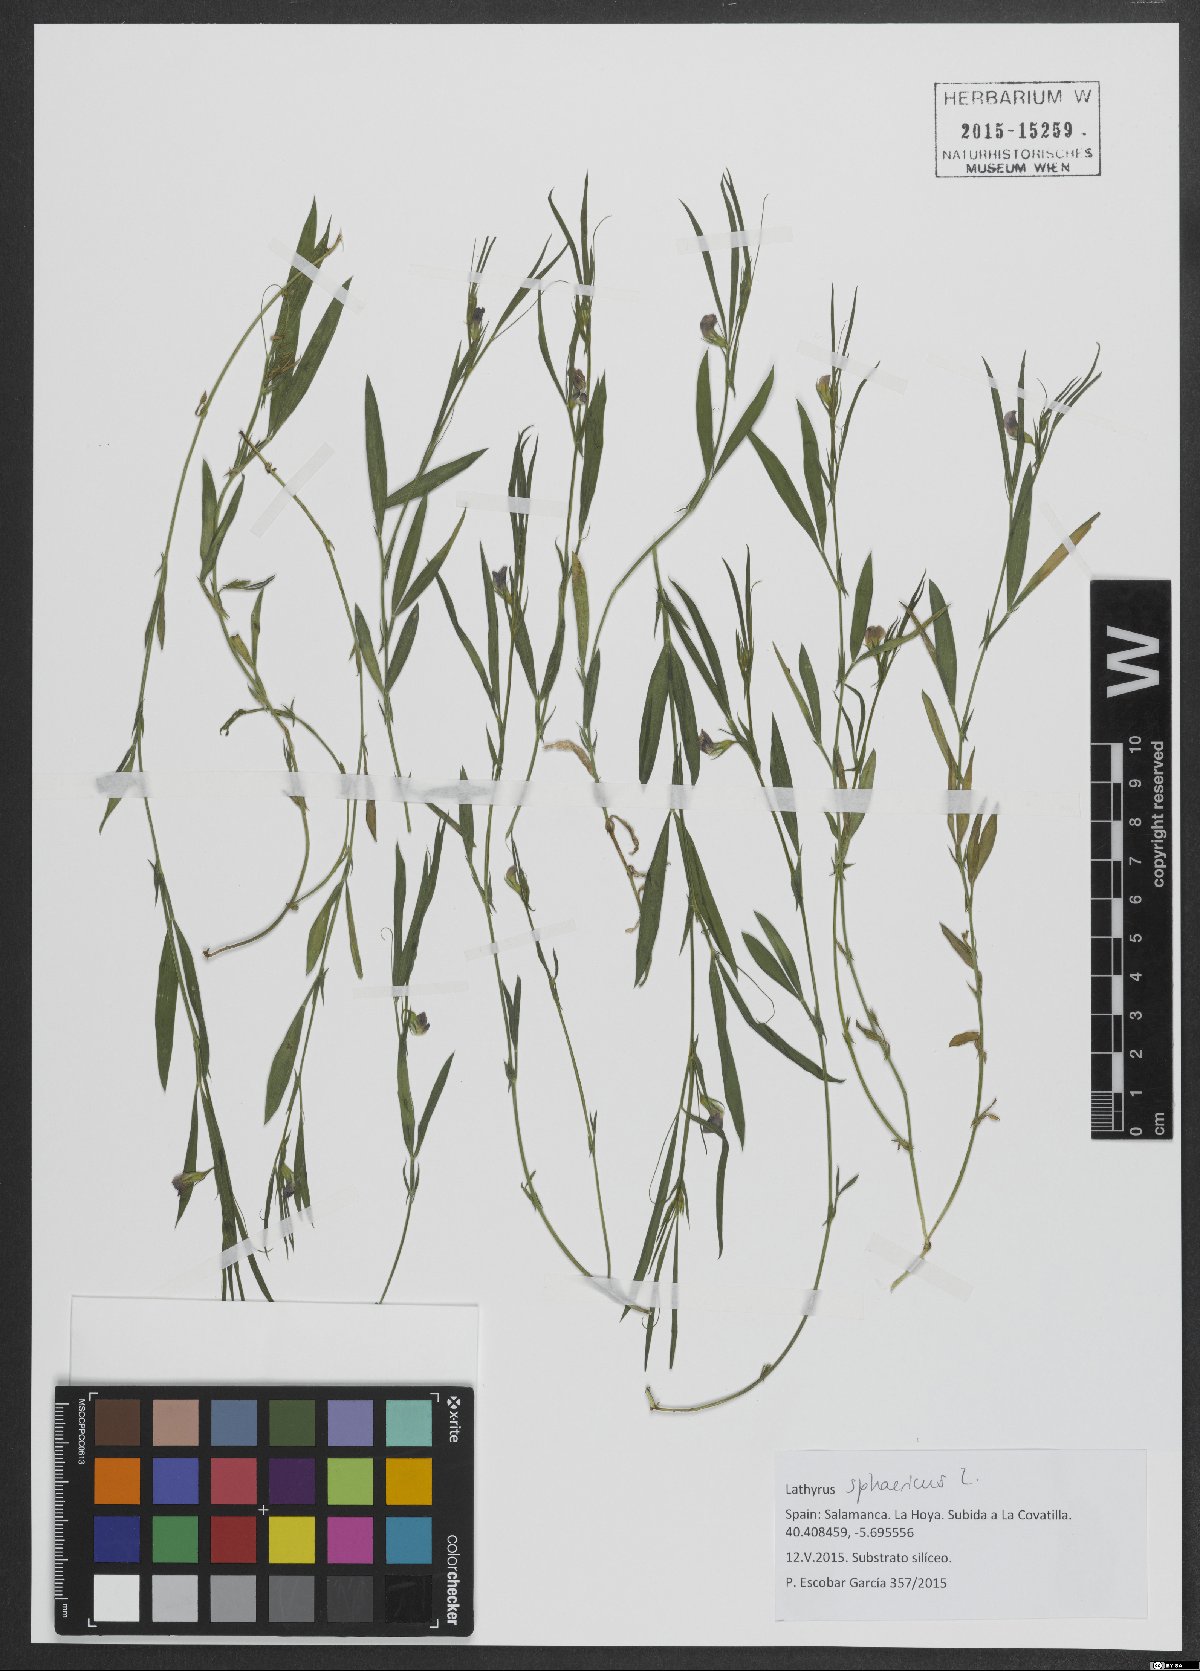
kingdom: Plantae
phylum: Tracheophyta
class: Magnoliopsida
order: Fabales
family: Fabaceae
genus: Lathyrus
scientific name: Lathyrus sphaericus
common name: Grass pea
